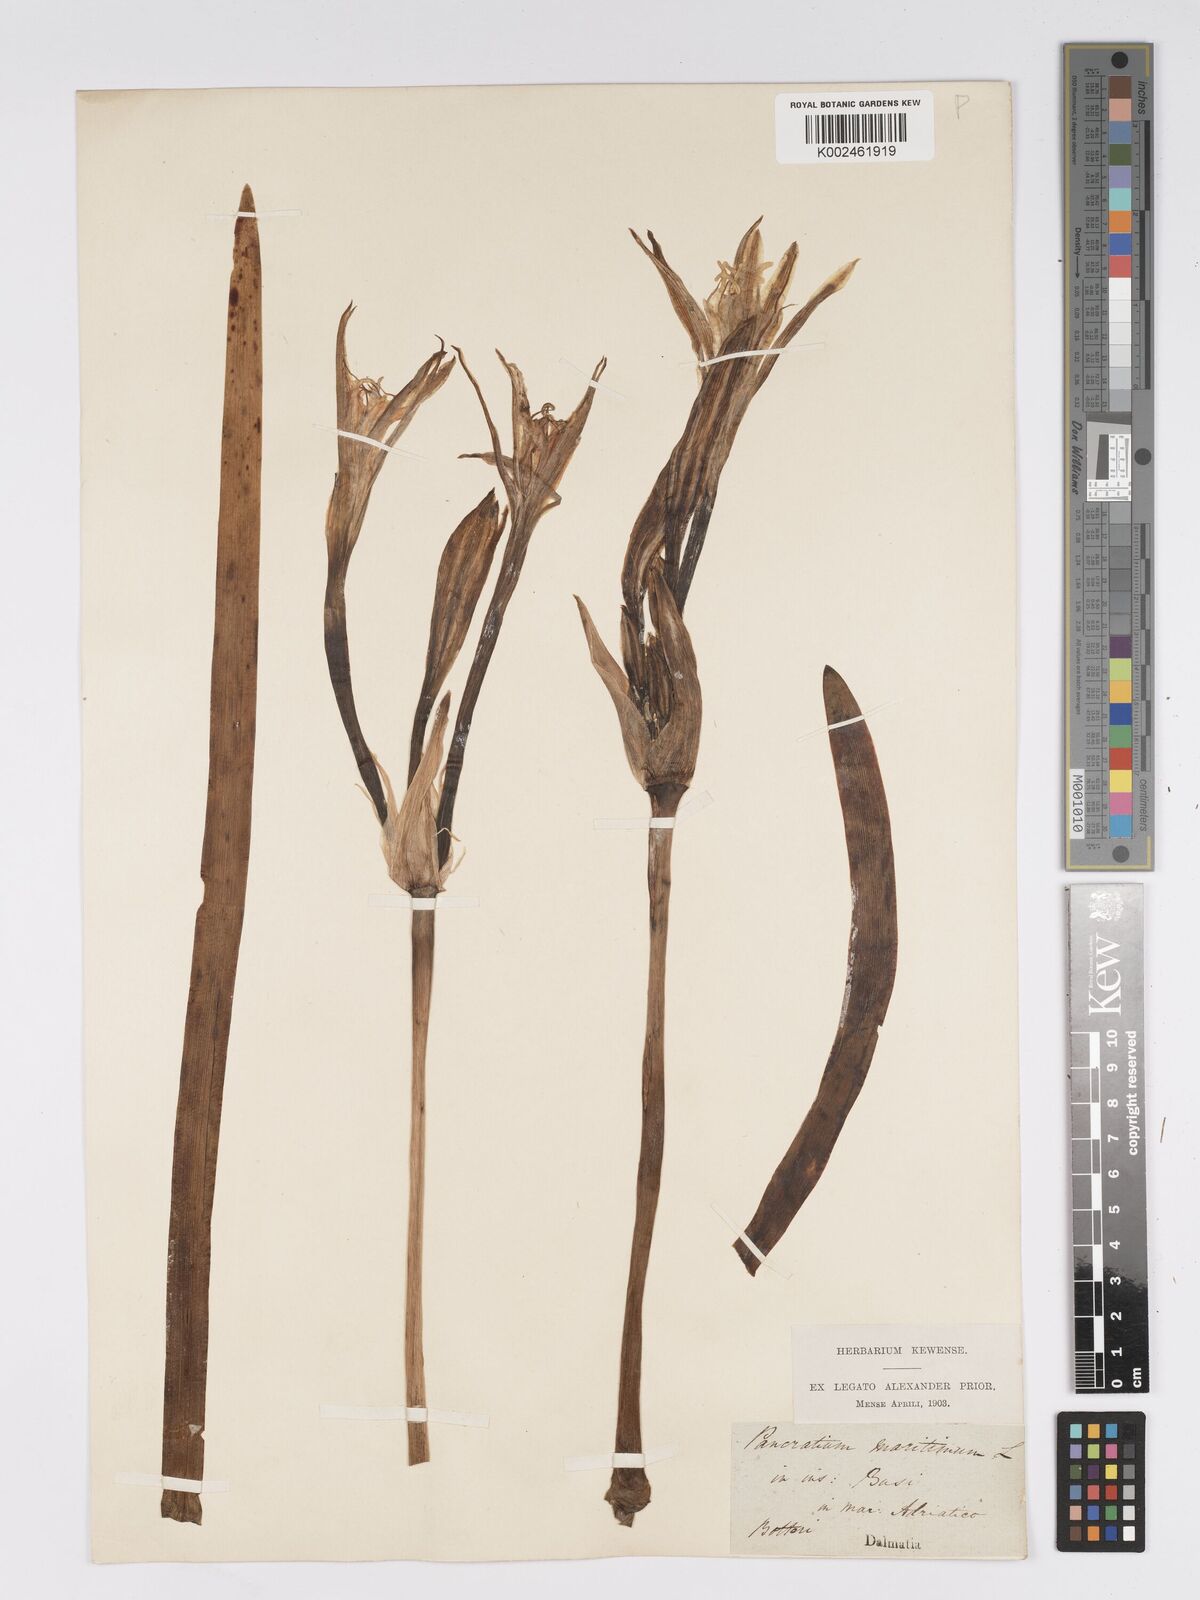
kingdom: Plantae
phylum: Tracheophyta
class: Liliopsida
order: Asparagales
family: Amaryllidaceae
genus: Pancratium
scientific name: Pancratium maritimum
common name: Sea-daffodil
